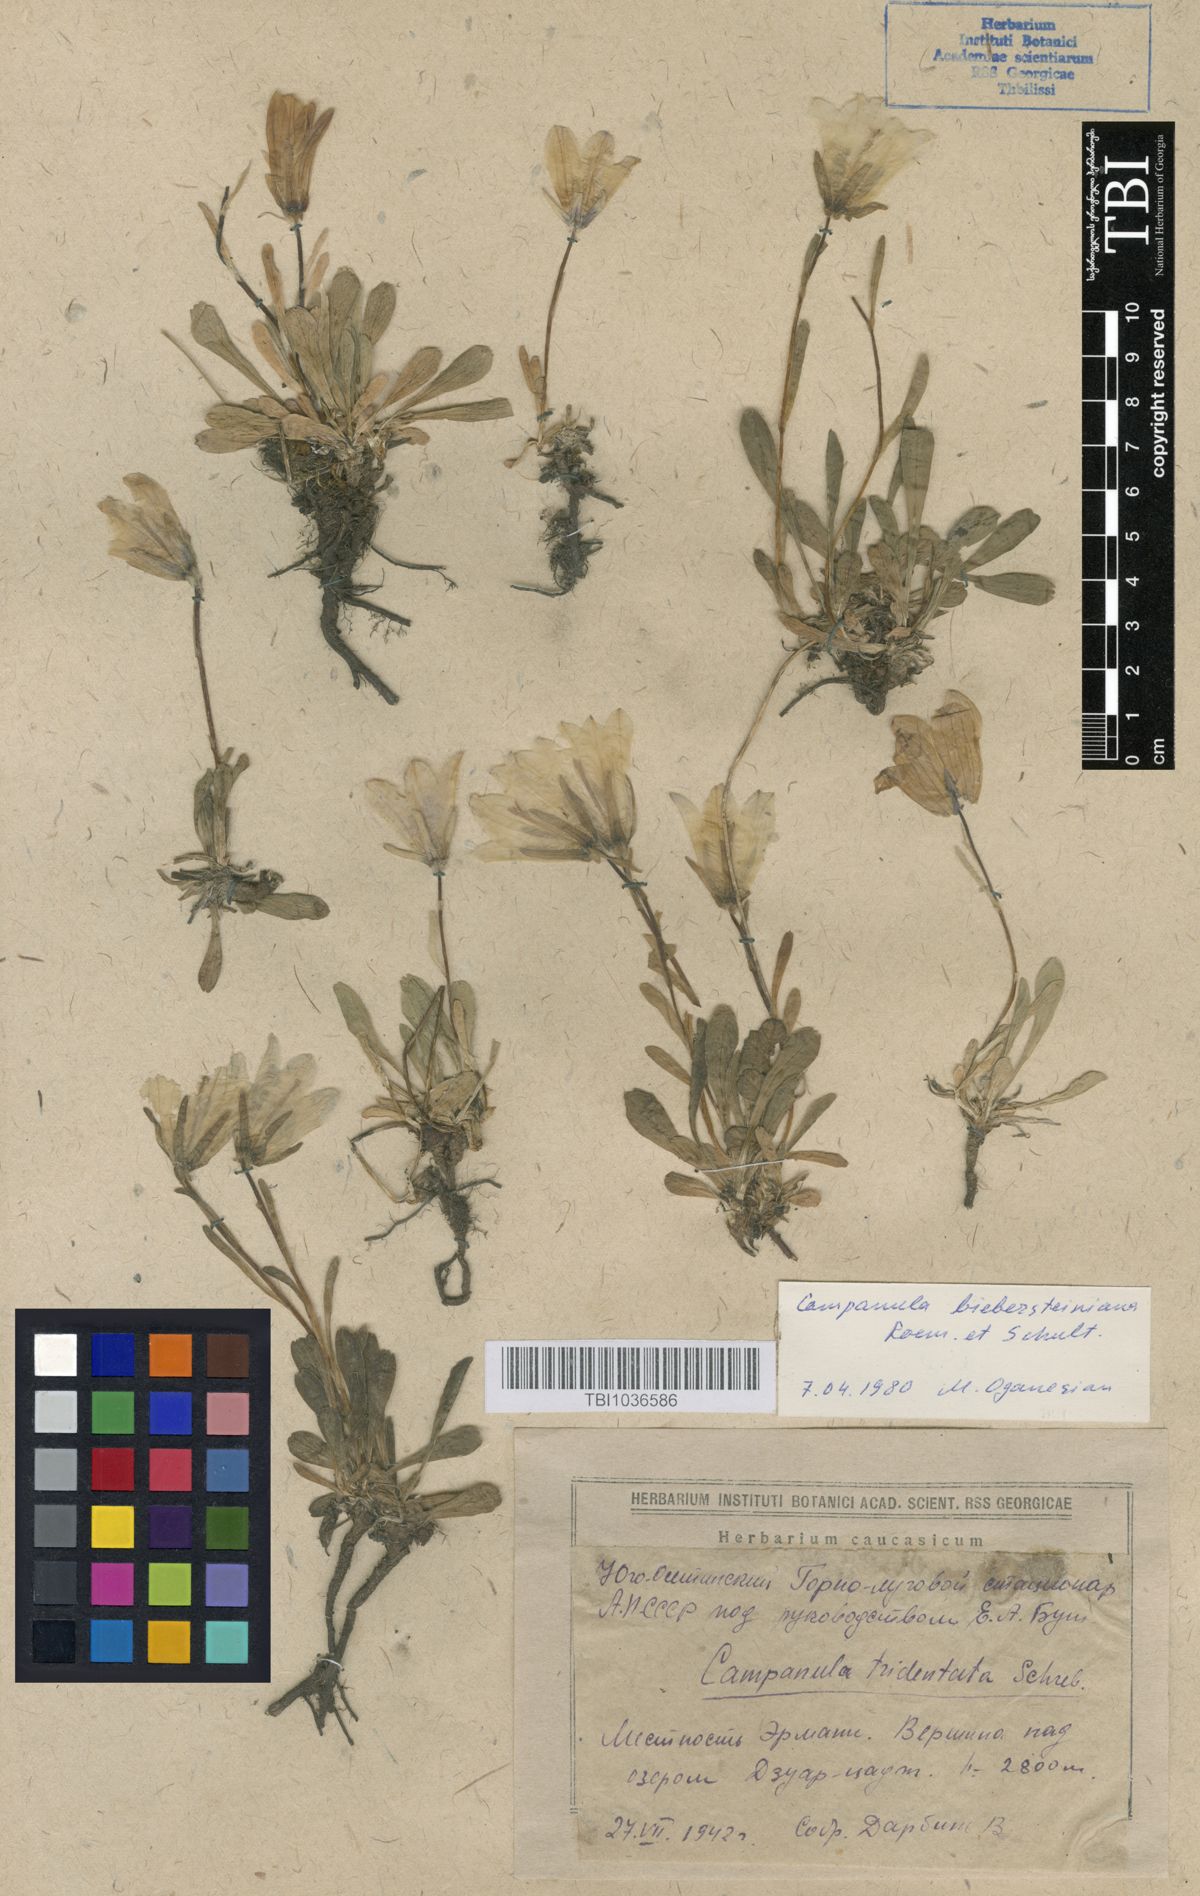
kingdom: Plantae
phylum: Tracheophyta
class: Magnoliopsida
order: Asterales
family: Campanulaceae
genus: Campanula
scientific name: Campanula tridentata
